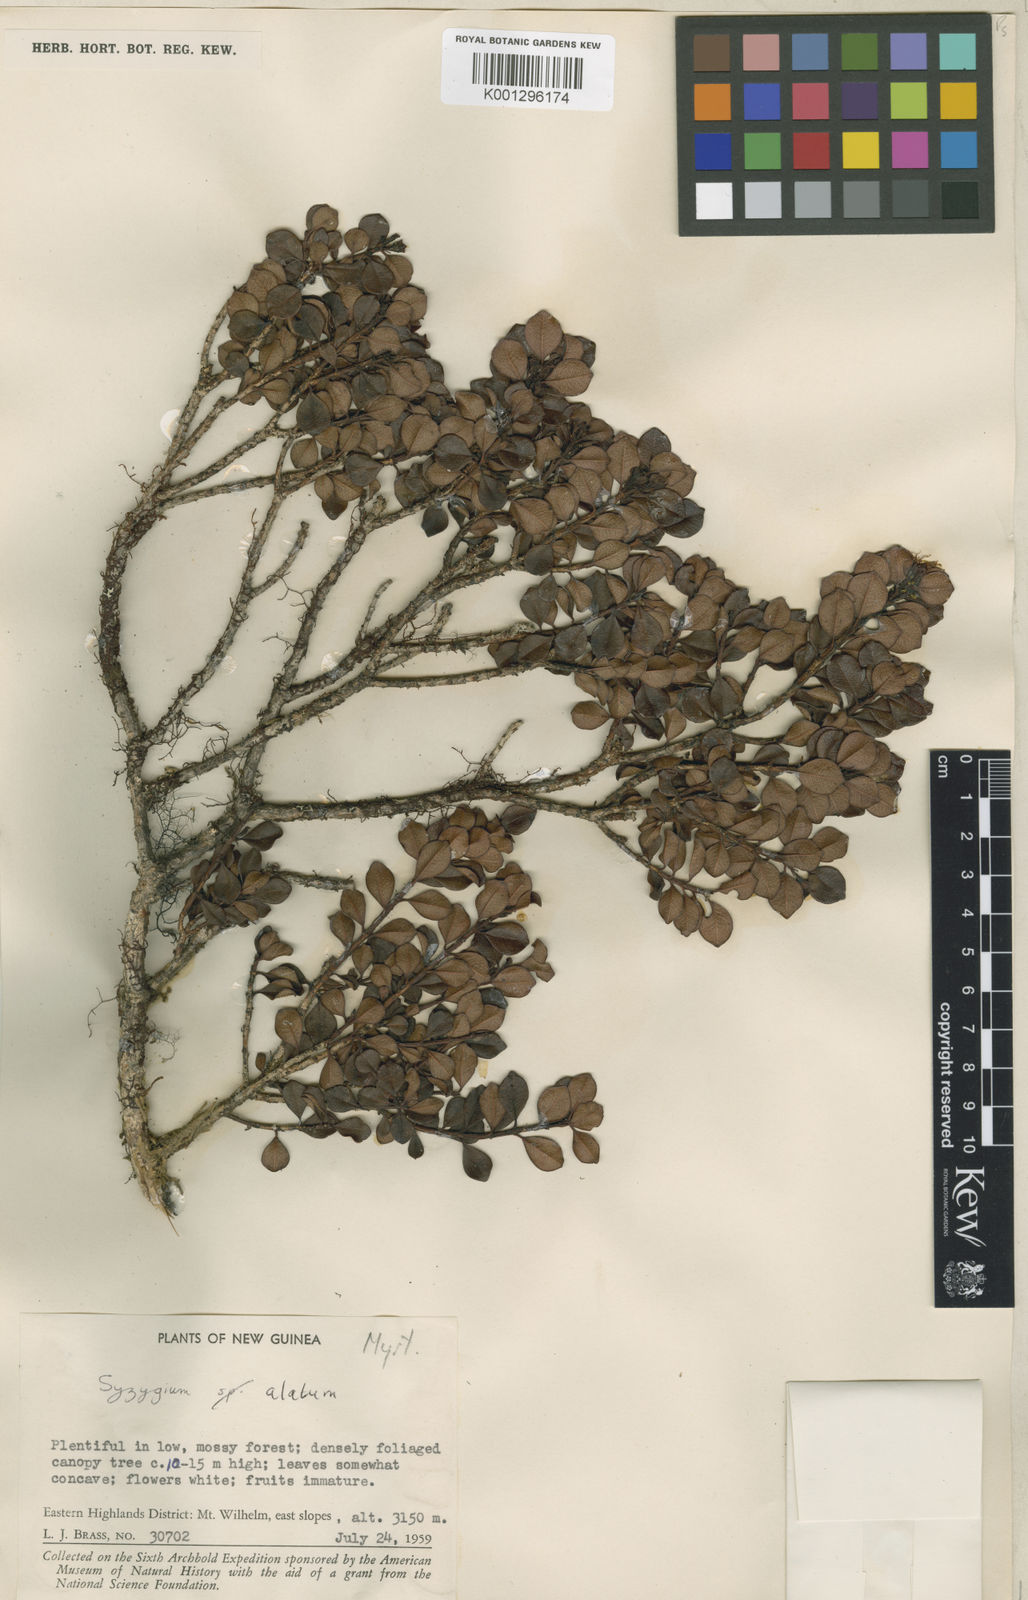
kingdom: Plantae
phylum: Tracheophyta
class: Magnoliopsida
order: Myrtales
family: Myrtaceae
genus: Syzygium
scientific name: Syzygium alatum
